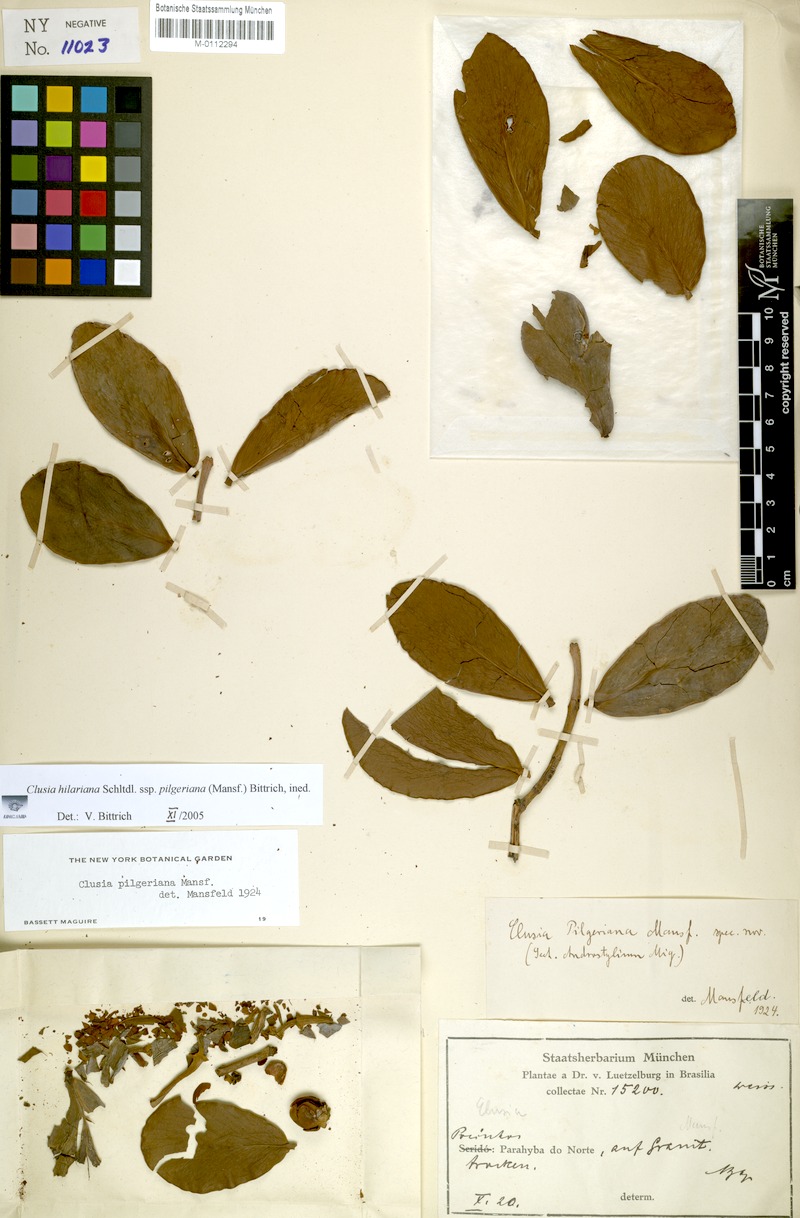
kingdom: Plantae
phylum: Tracheophyta
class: Magnoliopsida
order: Malpighiales
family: Clusiaceae
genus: Clusia
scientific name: Clusia pilgeriana
